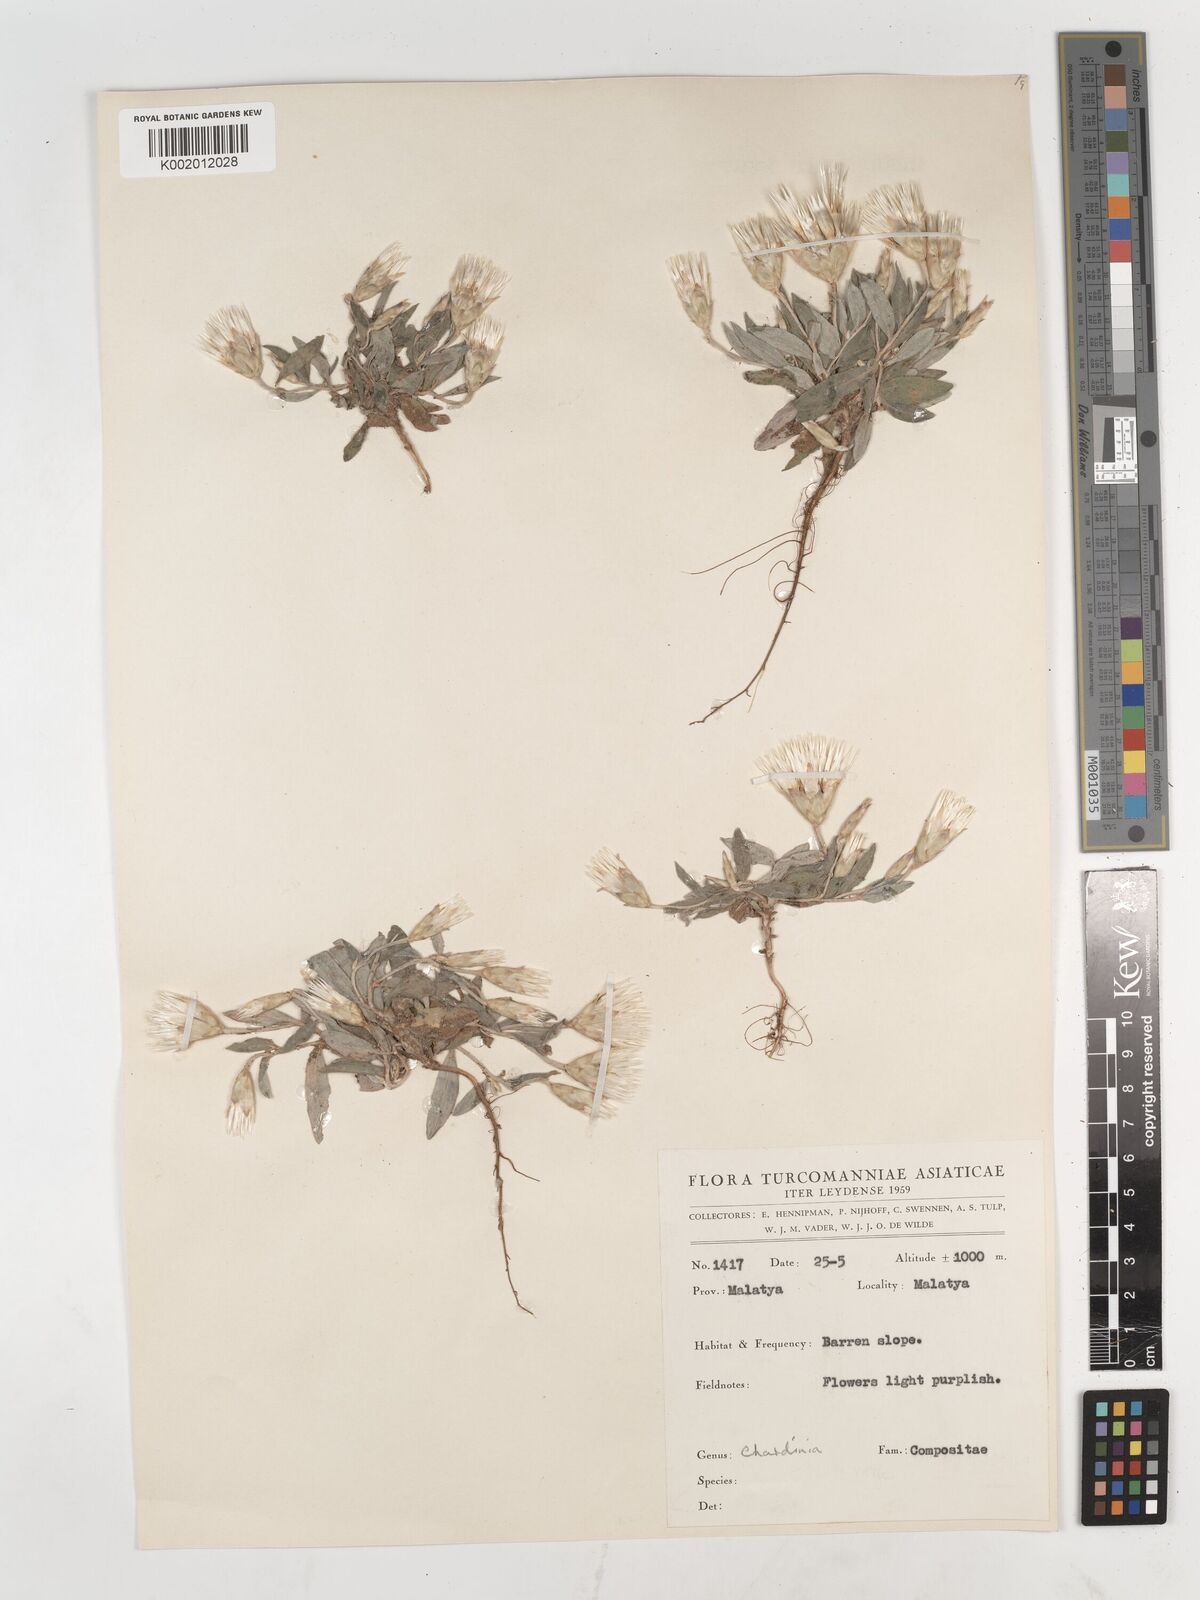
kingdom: Plantae
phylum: Tracheophyta
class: Magnoliopsida
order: Asterales
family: Asteraceae
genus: Chardinia
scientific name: Chardinia orientalis
